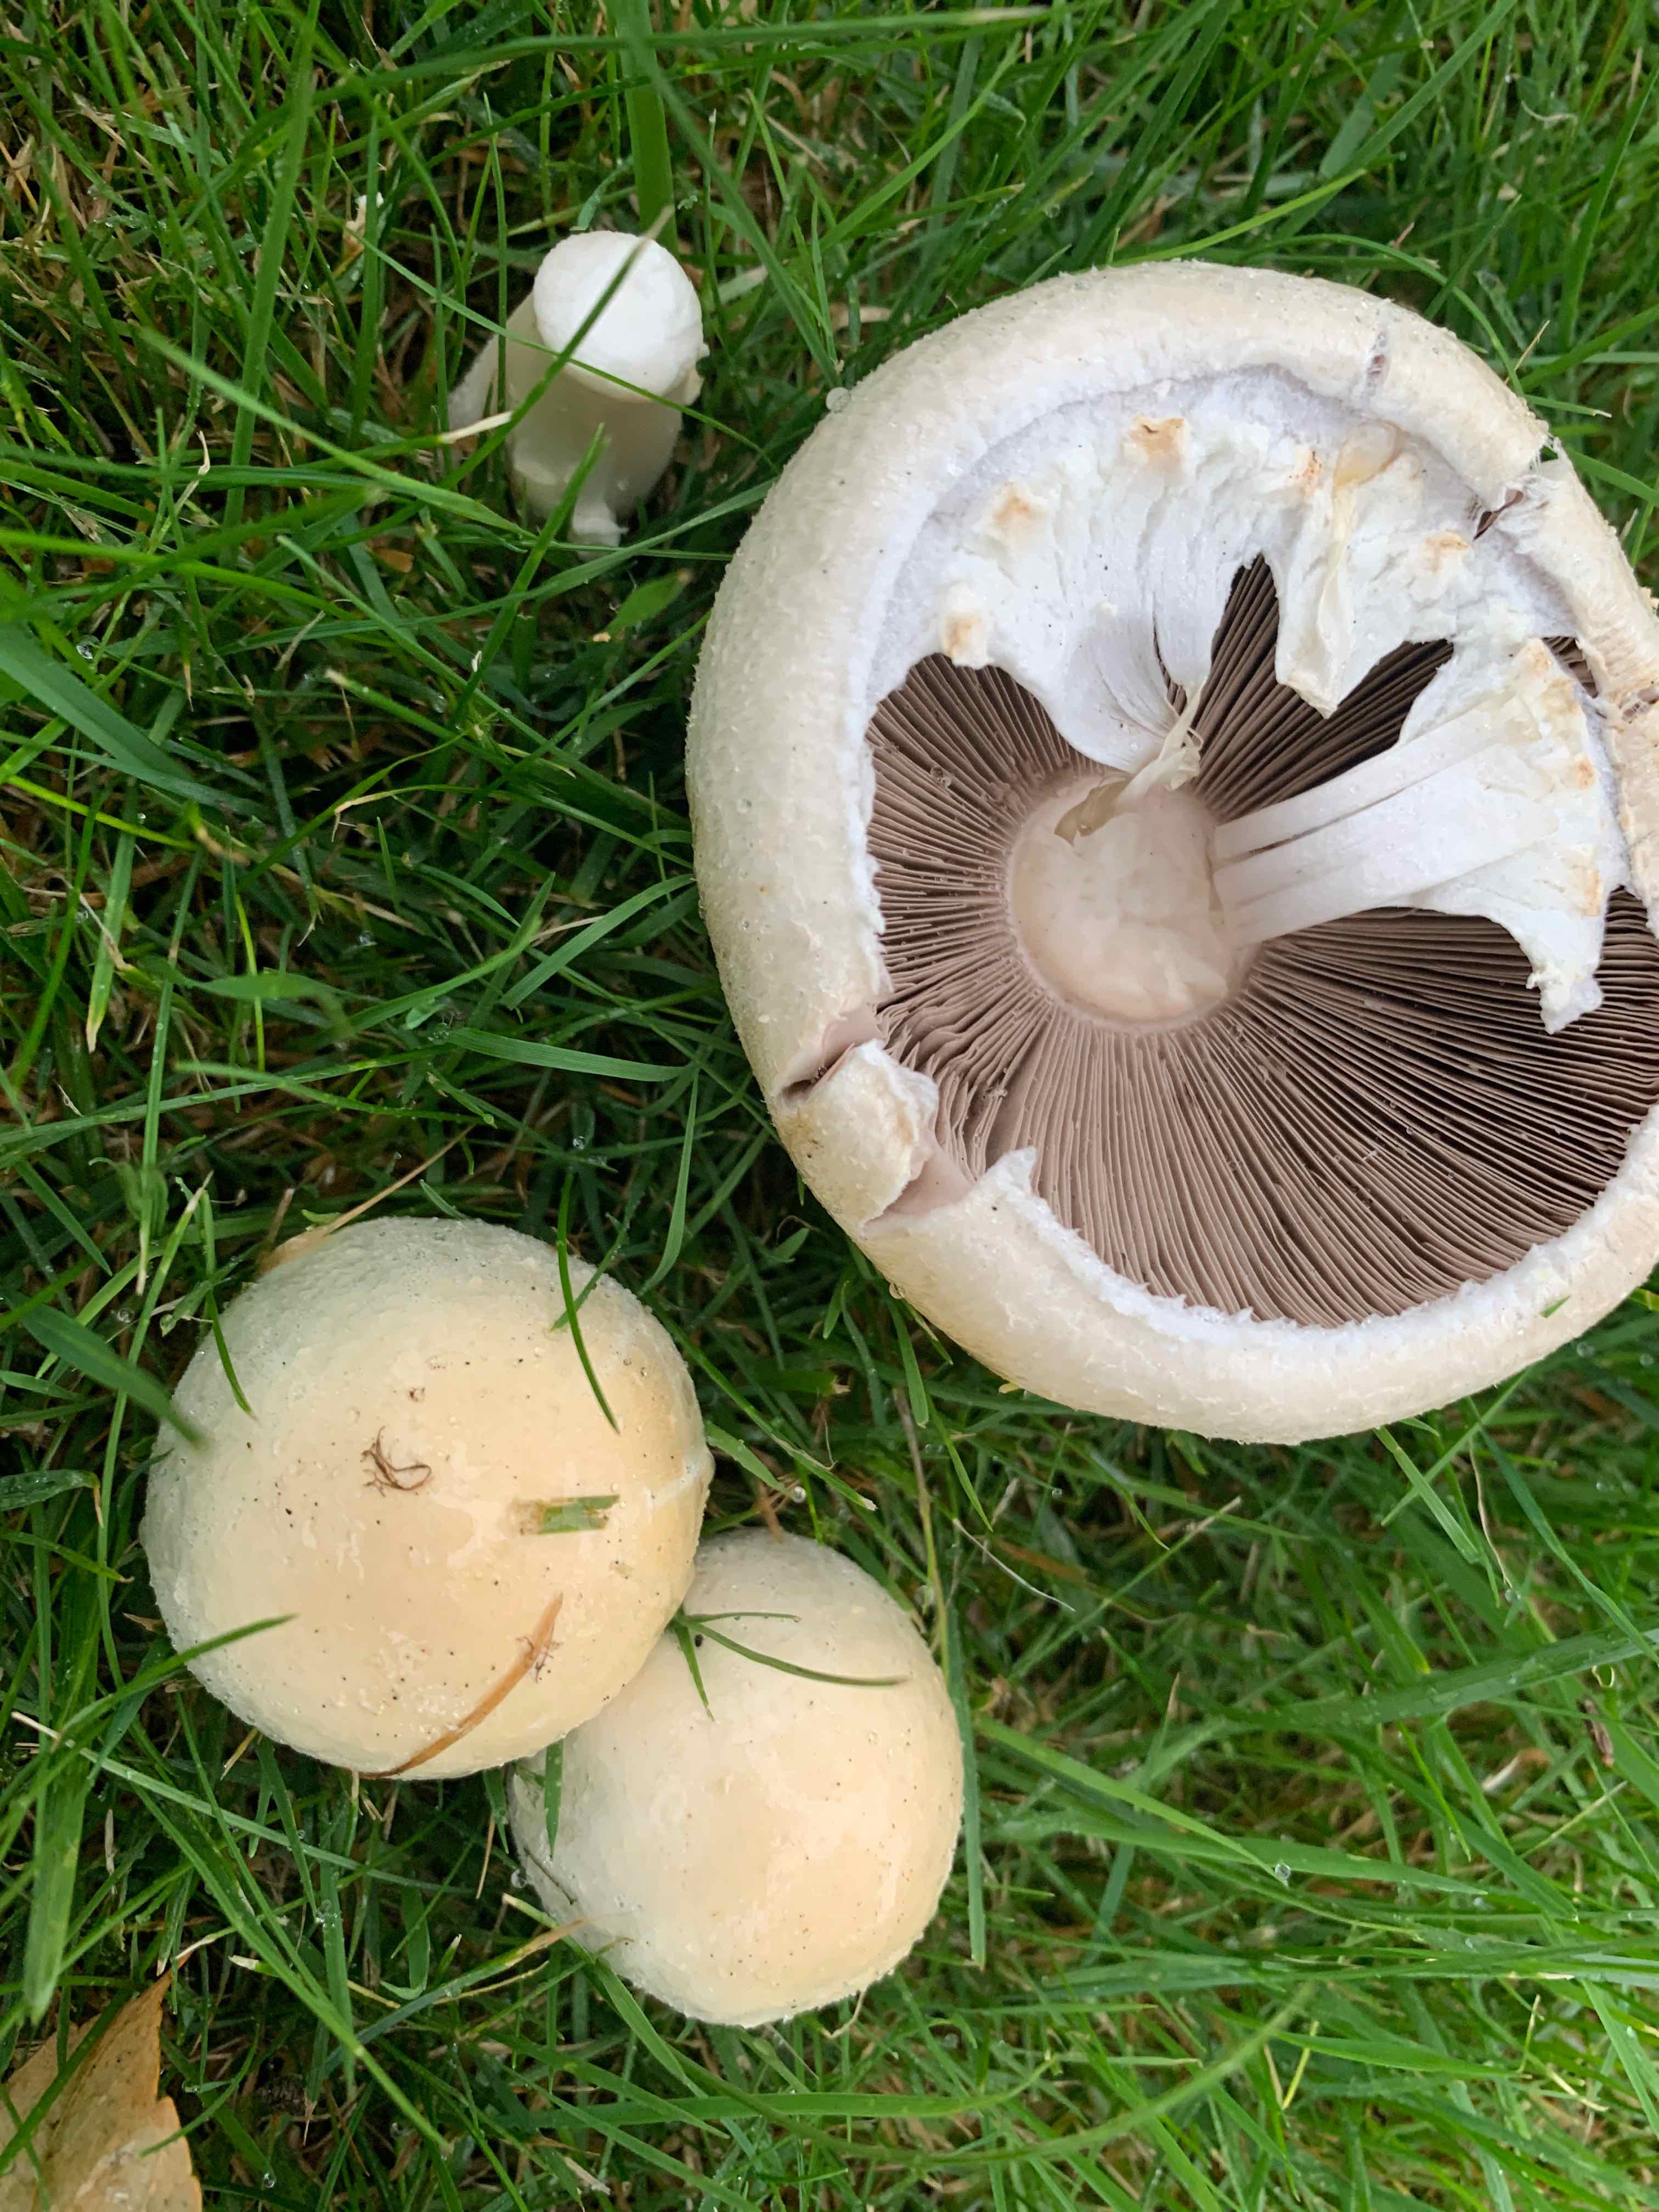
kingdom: Fungi
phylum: Basidiomycota
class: Agaricomycetes
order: Agaricales
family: Agaricaceae
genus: Agaricus
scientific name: Agaricus arvensis
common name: ager-champignon
